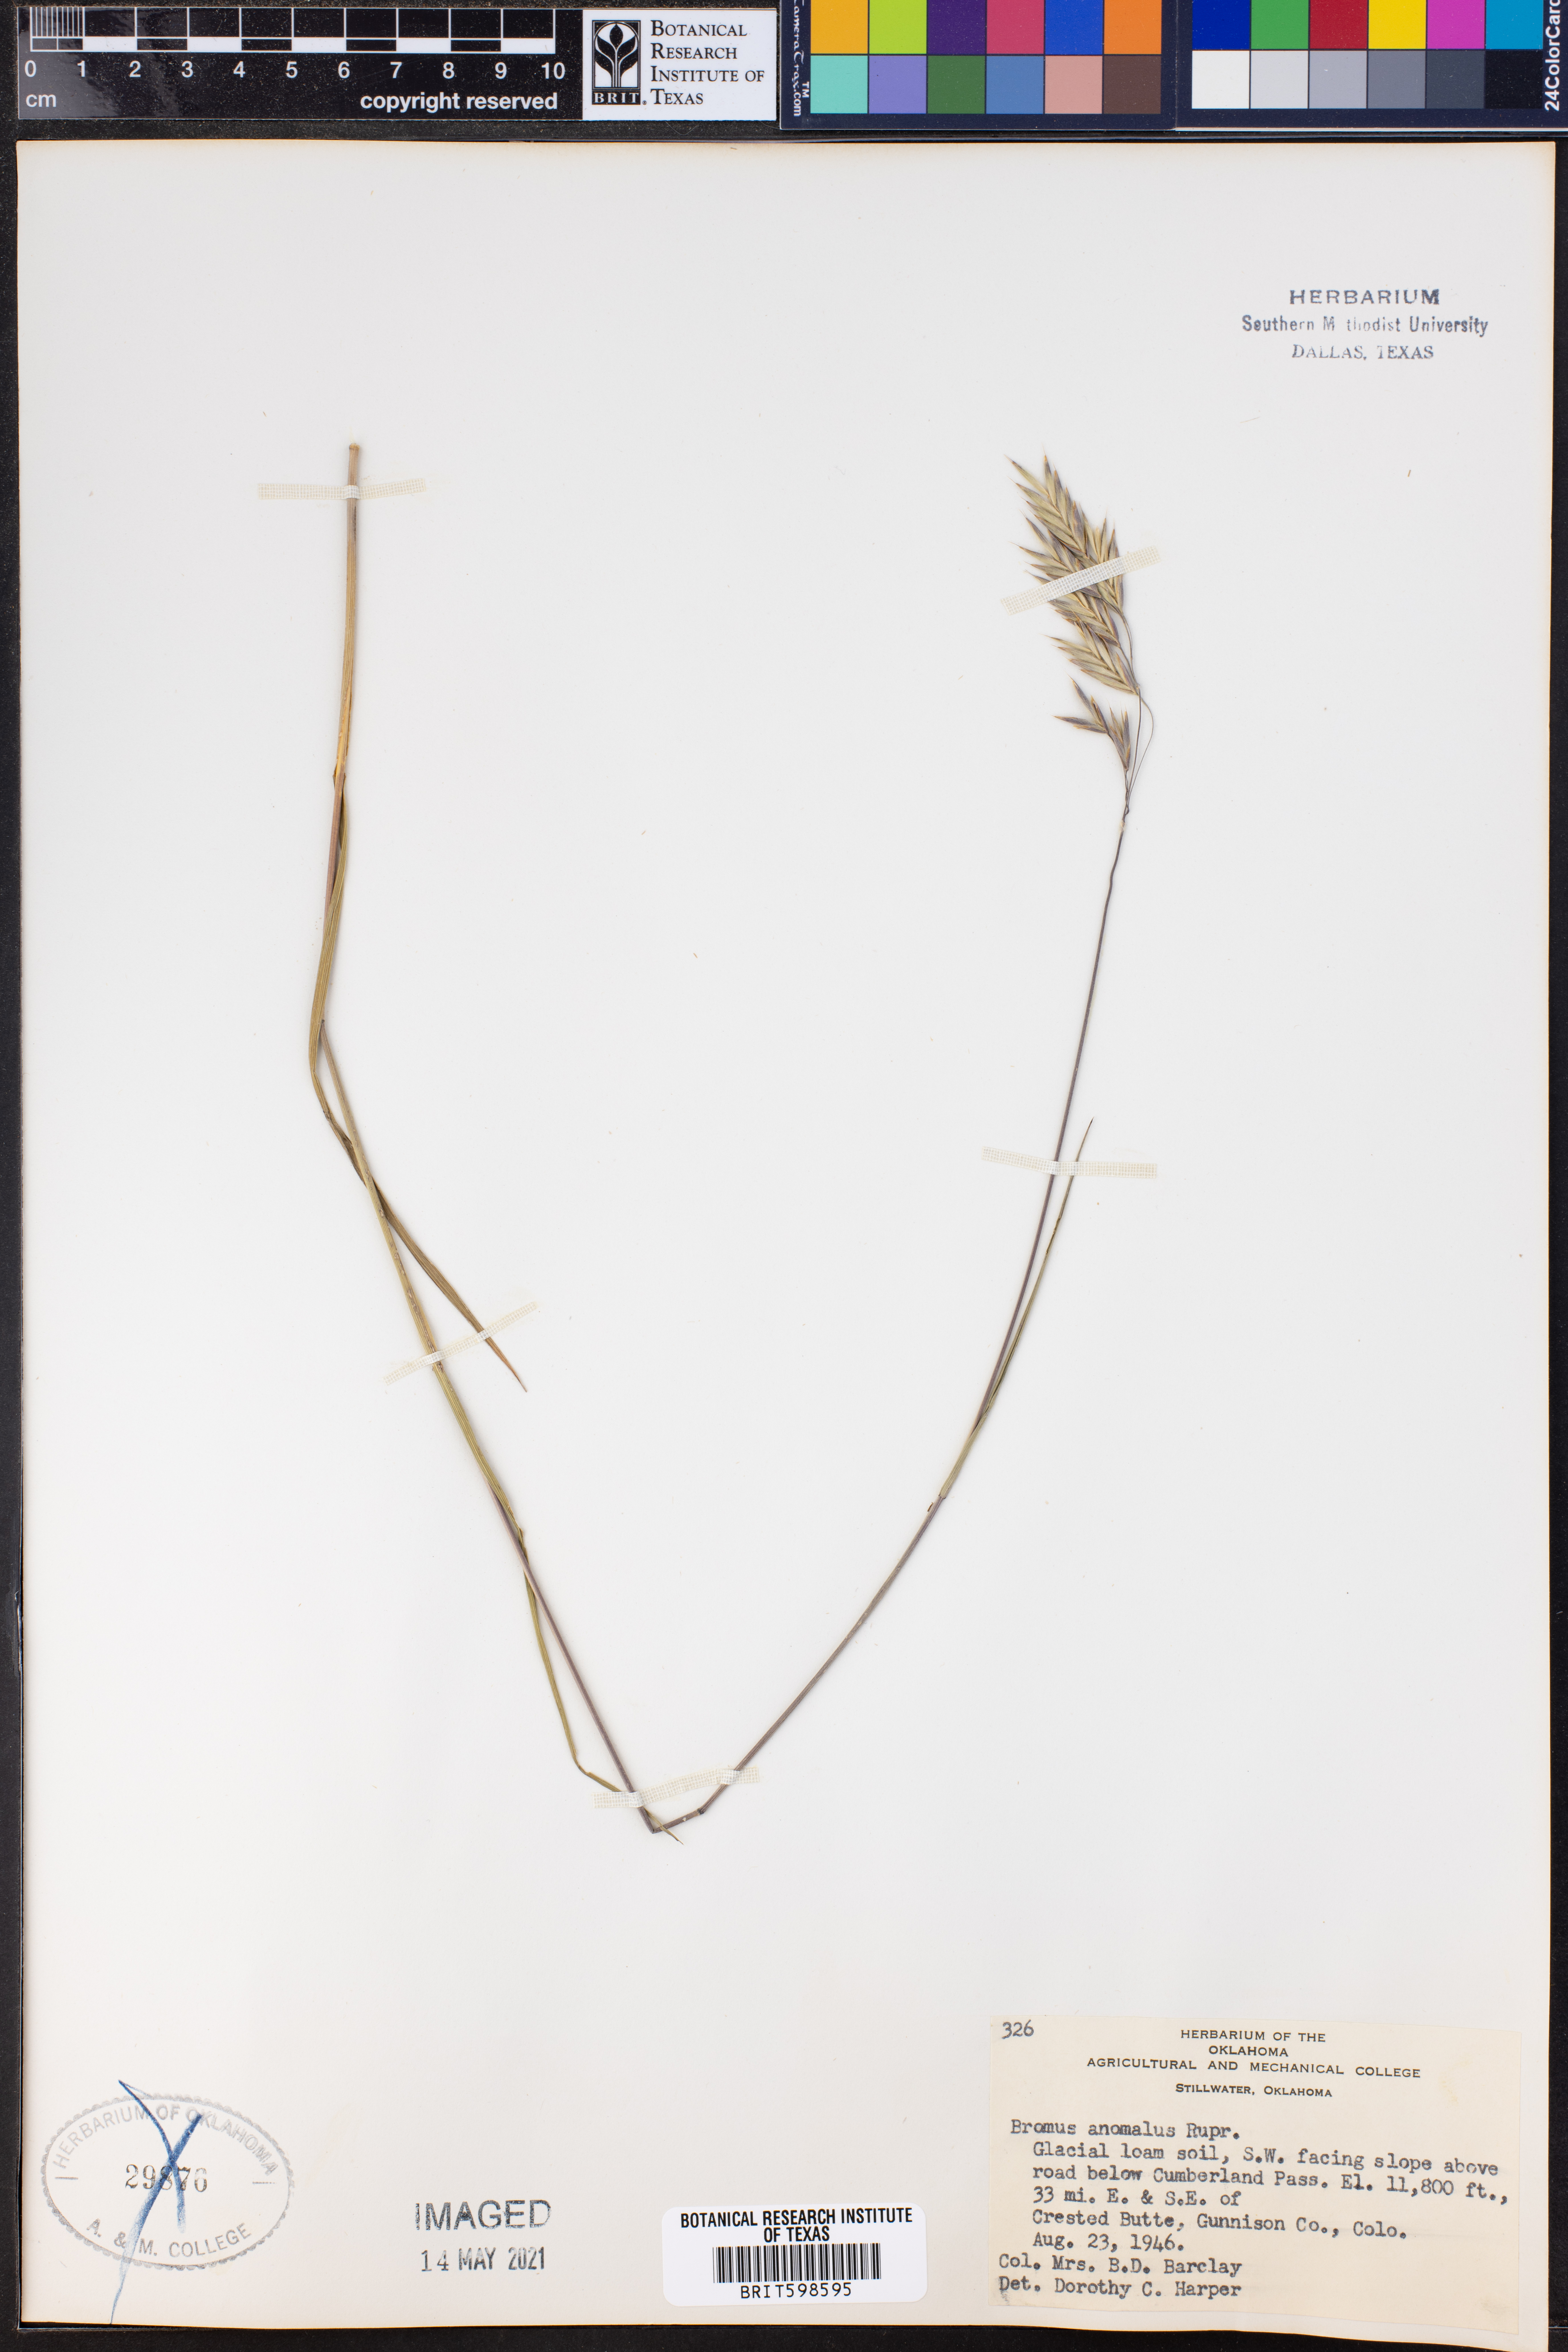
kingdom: Plantae
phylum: Tracheophyta
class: Liliopsida
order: Poales
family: Poaceae
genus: Bromus
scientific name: Bromus anomalus
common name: Nodding brome
